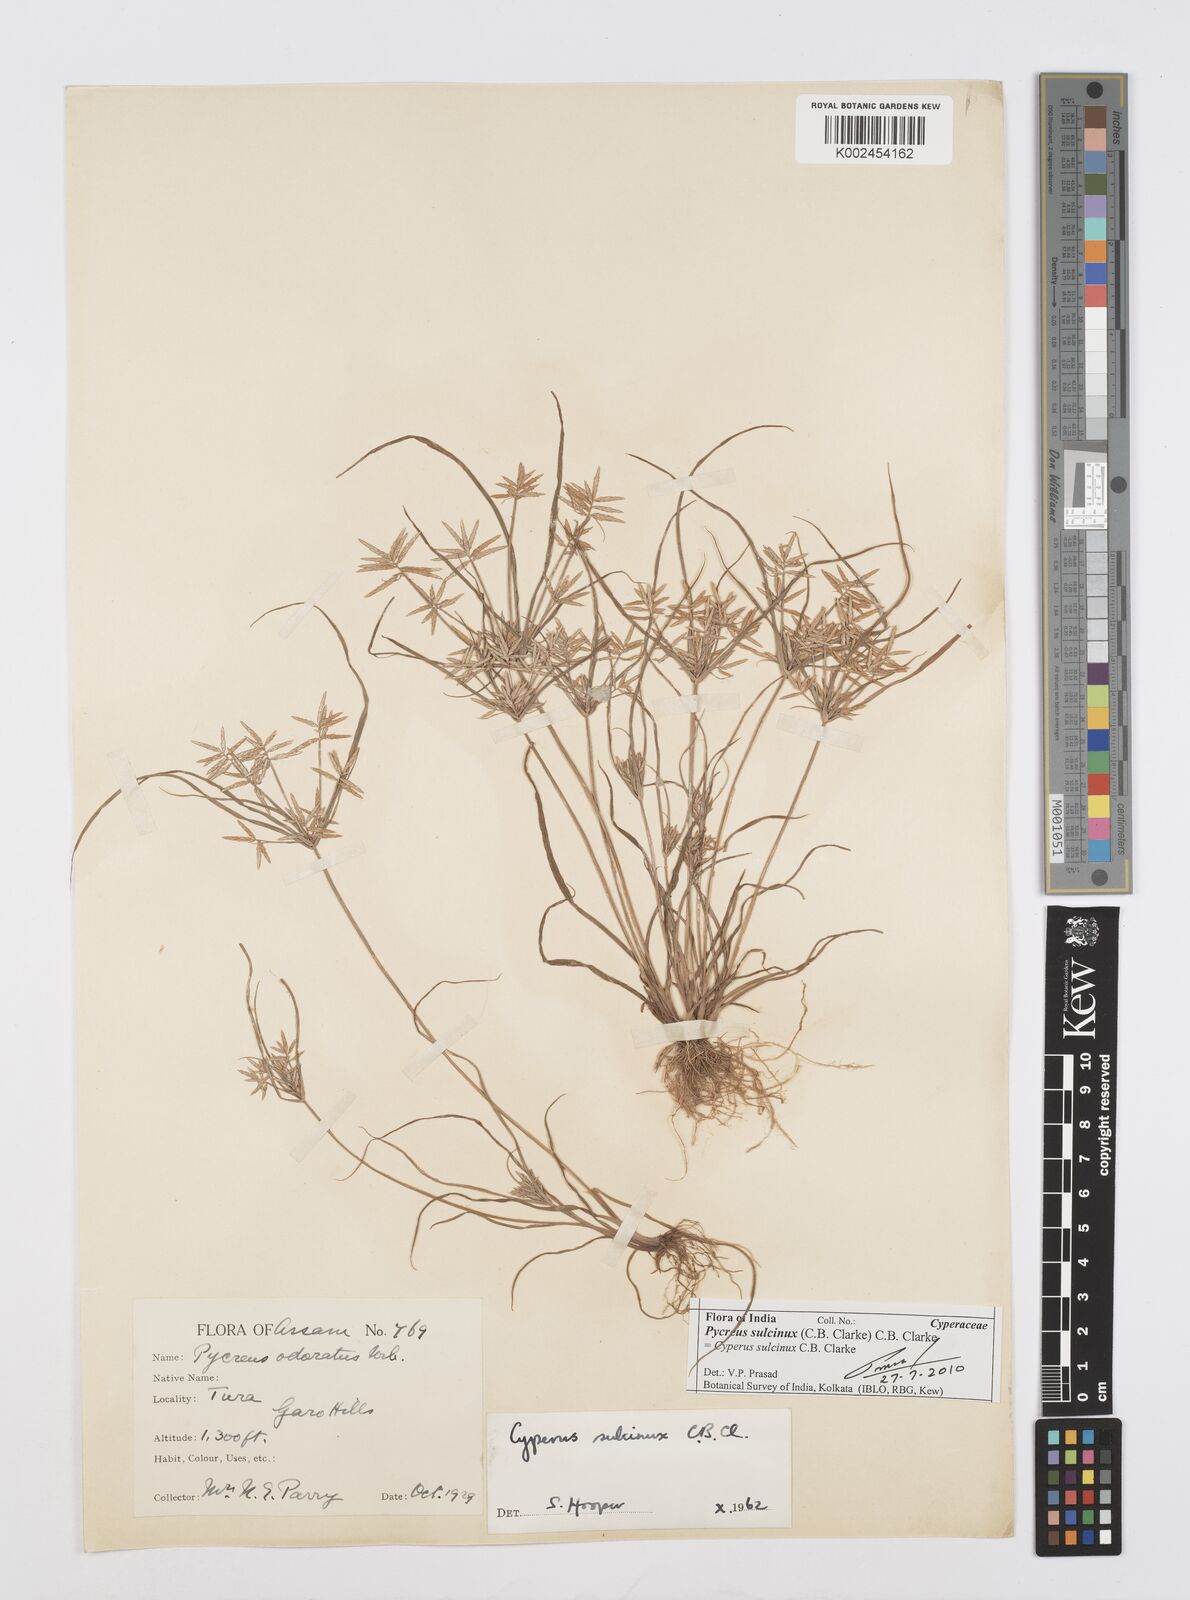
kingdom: Plantae
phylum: Tracheophyta
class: Liliopsida
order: Poales
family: Cyperaceae
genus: Cyperus
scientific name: Cyperus sulcinux
